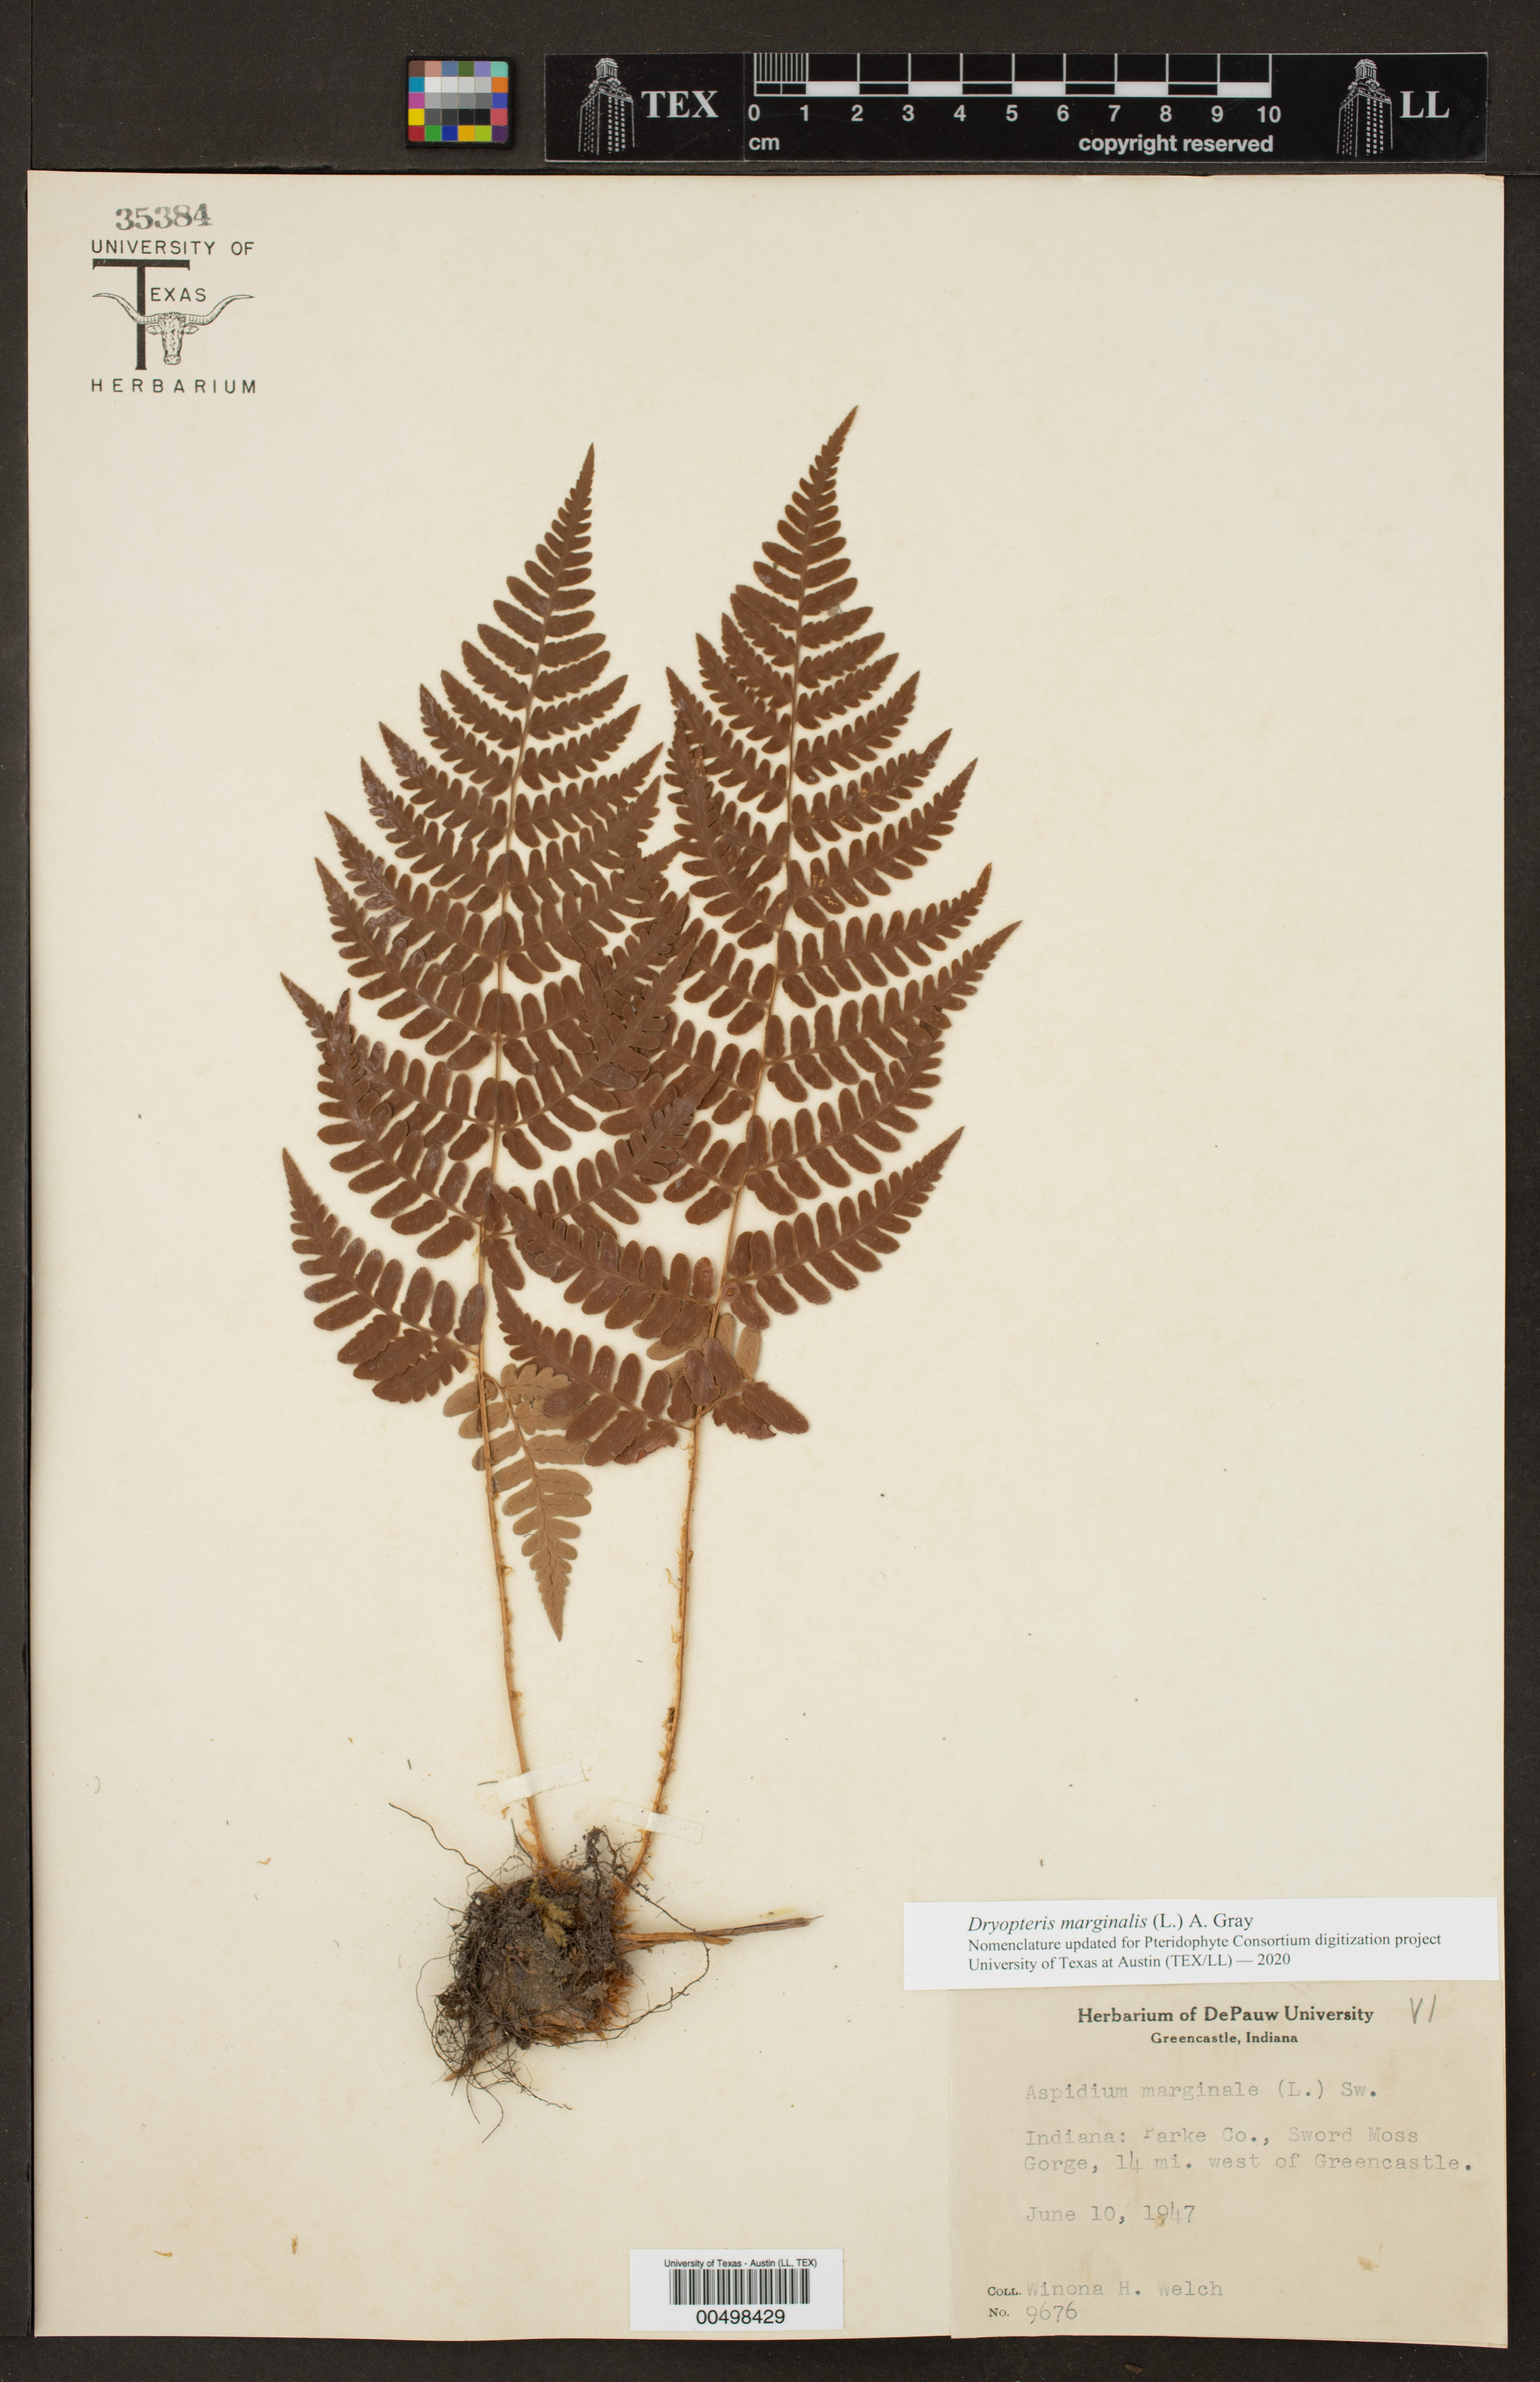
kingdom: Plantae
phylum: Tracheophyta
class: Polypodiopsida
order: Polypodiales
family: Dryopteridaceae
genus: Dryopteris
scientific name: Dryopteris marginalis
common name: Marginal wood fern
